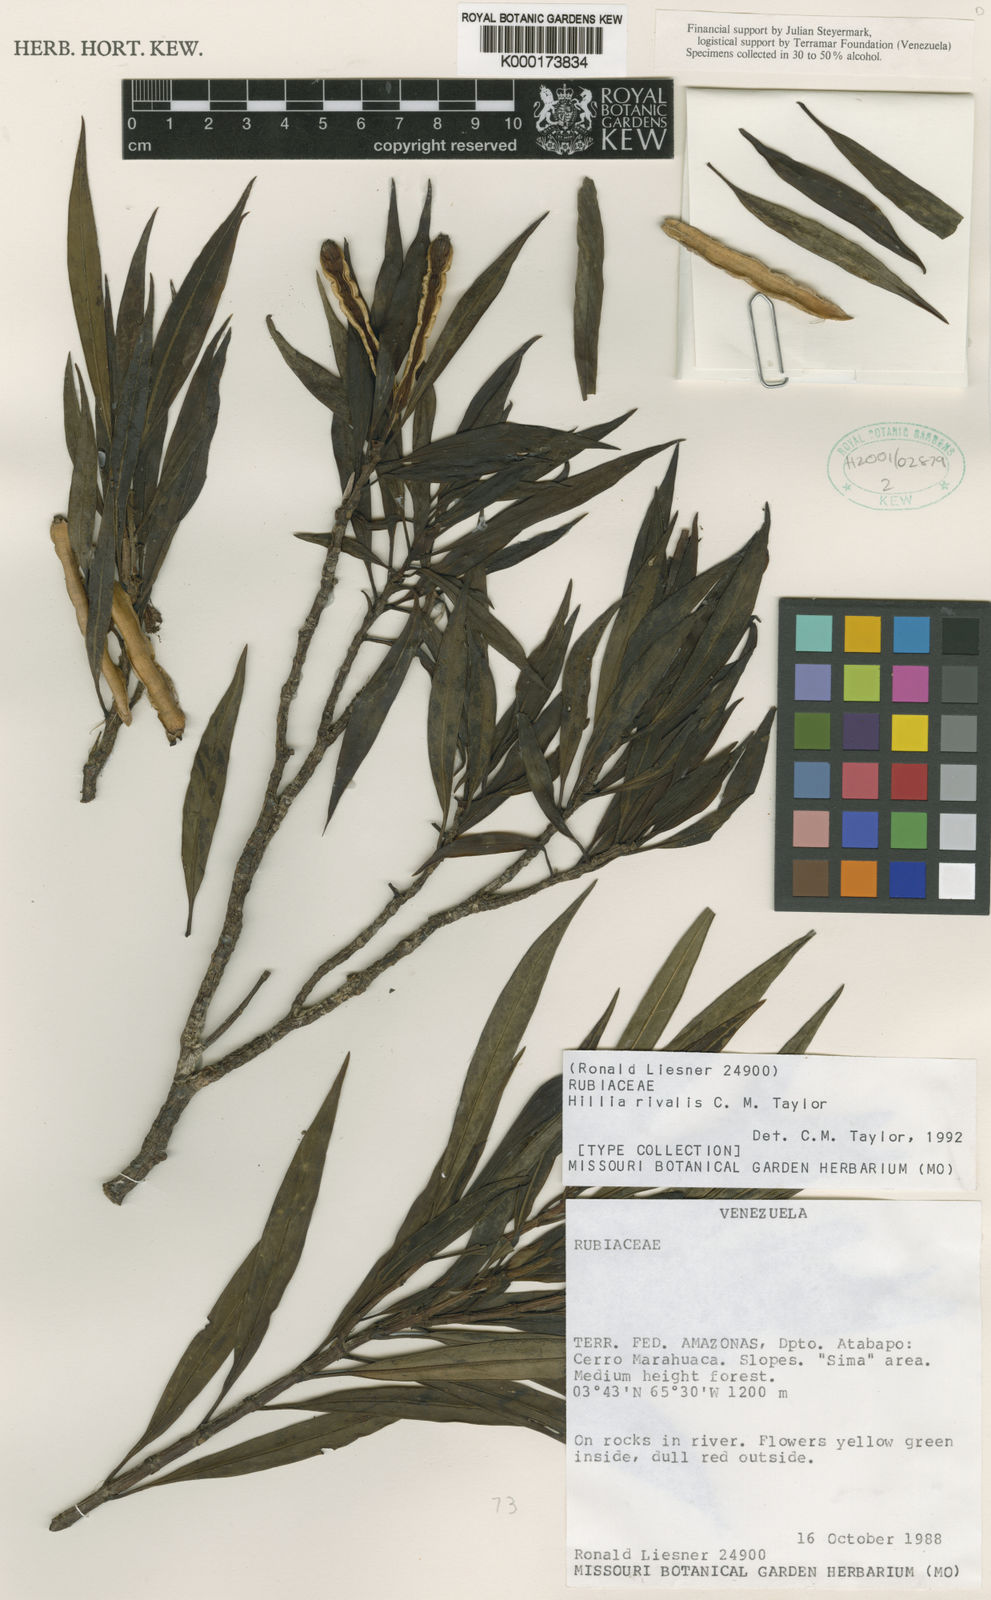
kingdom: Plantae
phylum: Tracheophyta
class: Magnoliopsida
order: Gentianales
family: Rubiaceae
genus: Hillia
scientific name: Hillia rivalis
